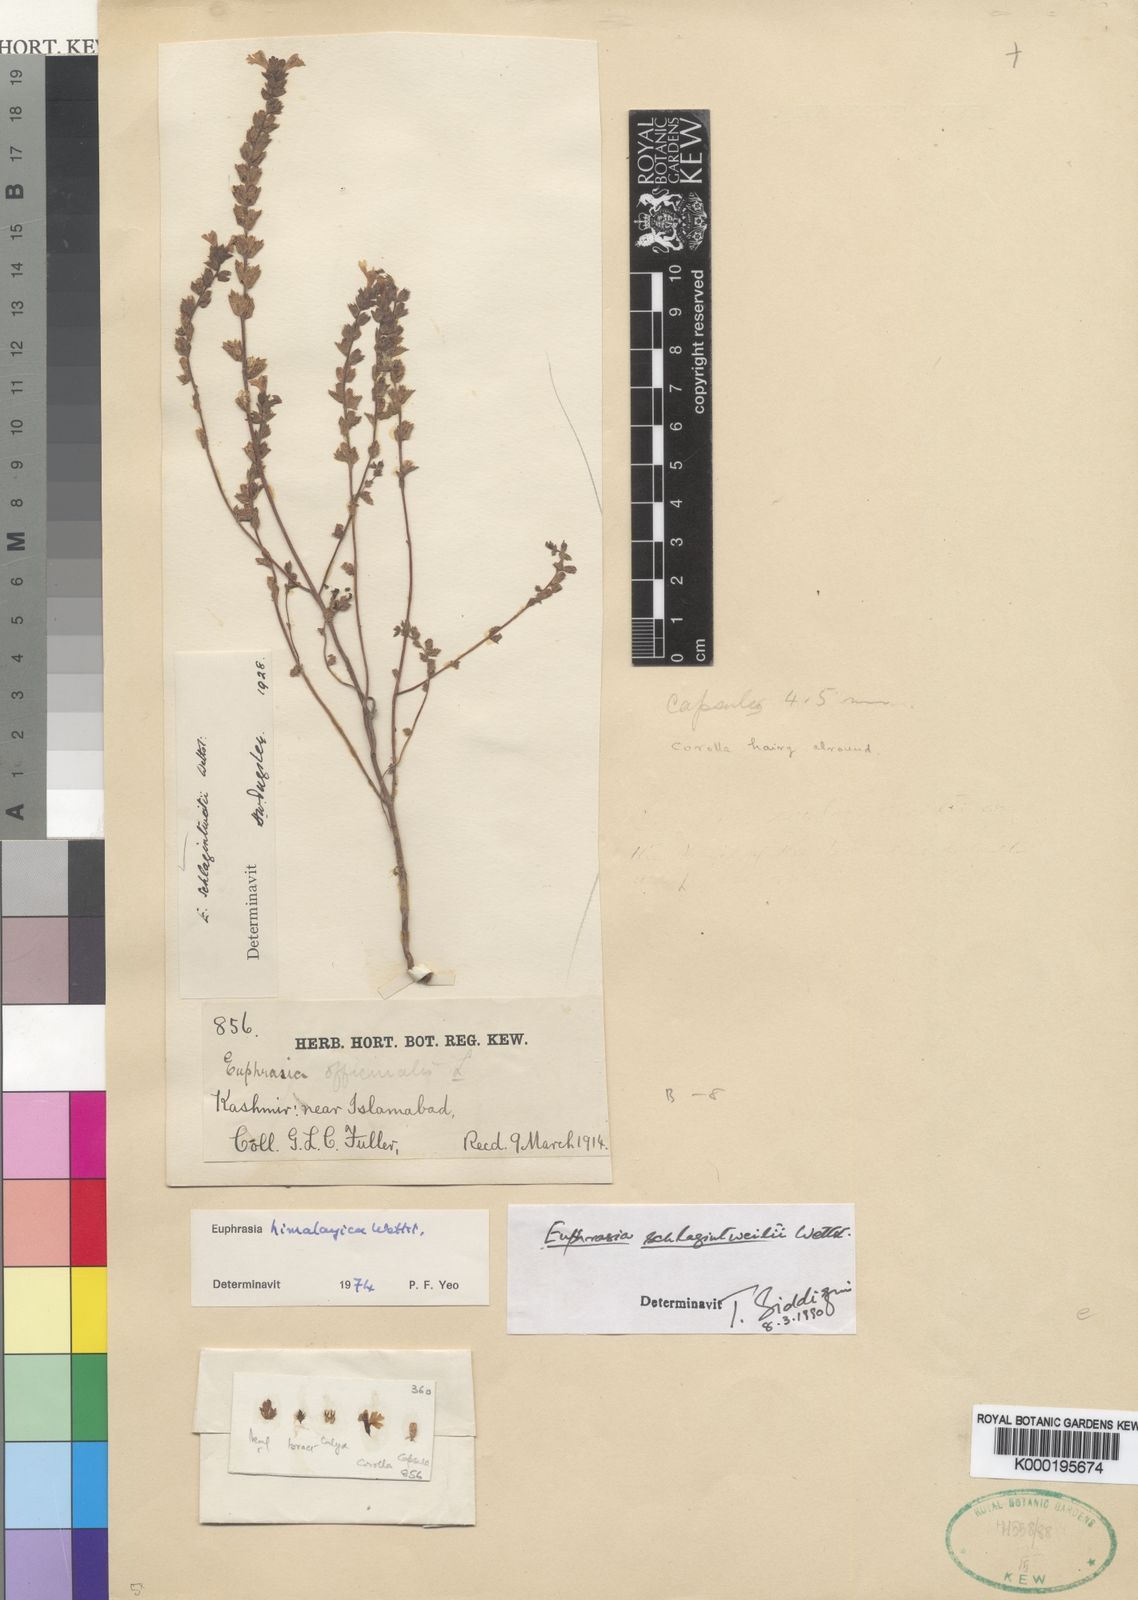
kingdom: Plantae
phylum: Tracheophyta
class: Magnoliopsida
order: Lamiales
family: Orobanchaceae
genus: Euphrasia
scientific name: Euphrasia schlagintweitii
